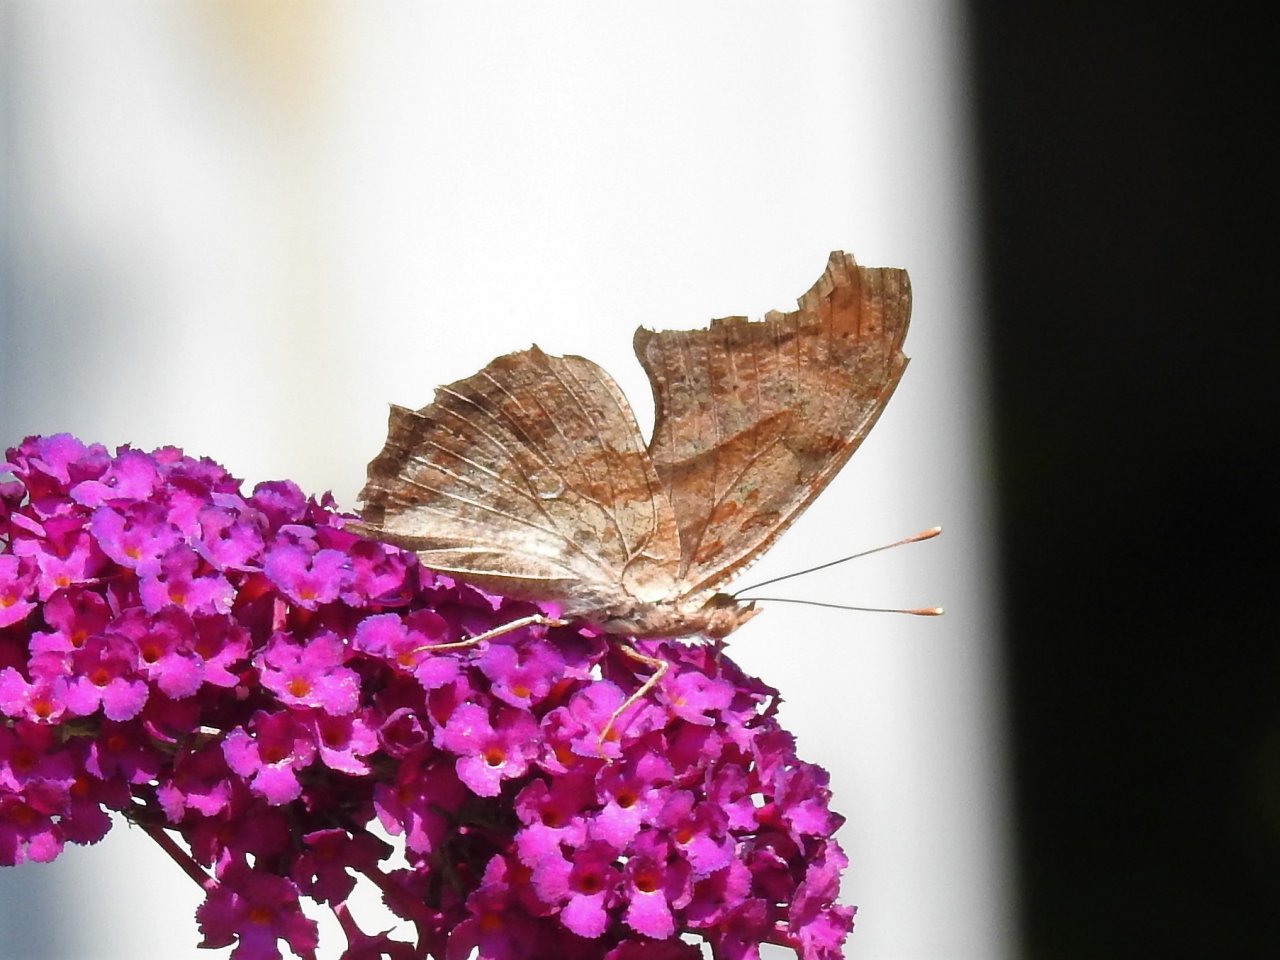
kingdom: Animalia
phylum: Arthropoda
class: Insecta
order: Lepidoptera
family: Nymphalidae
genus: Polygonia
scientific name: Polygonia interrogationis
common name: Question Mark
